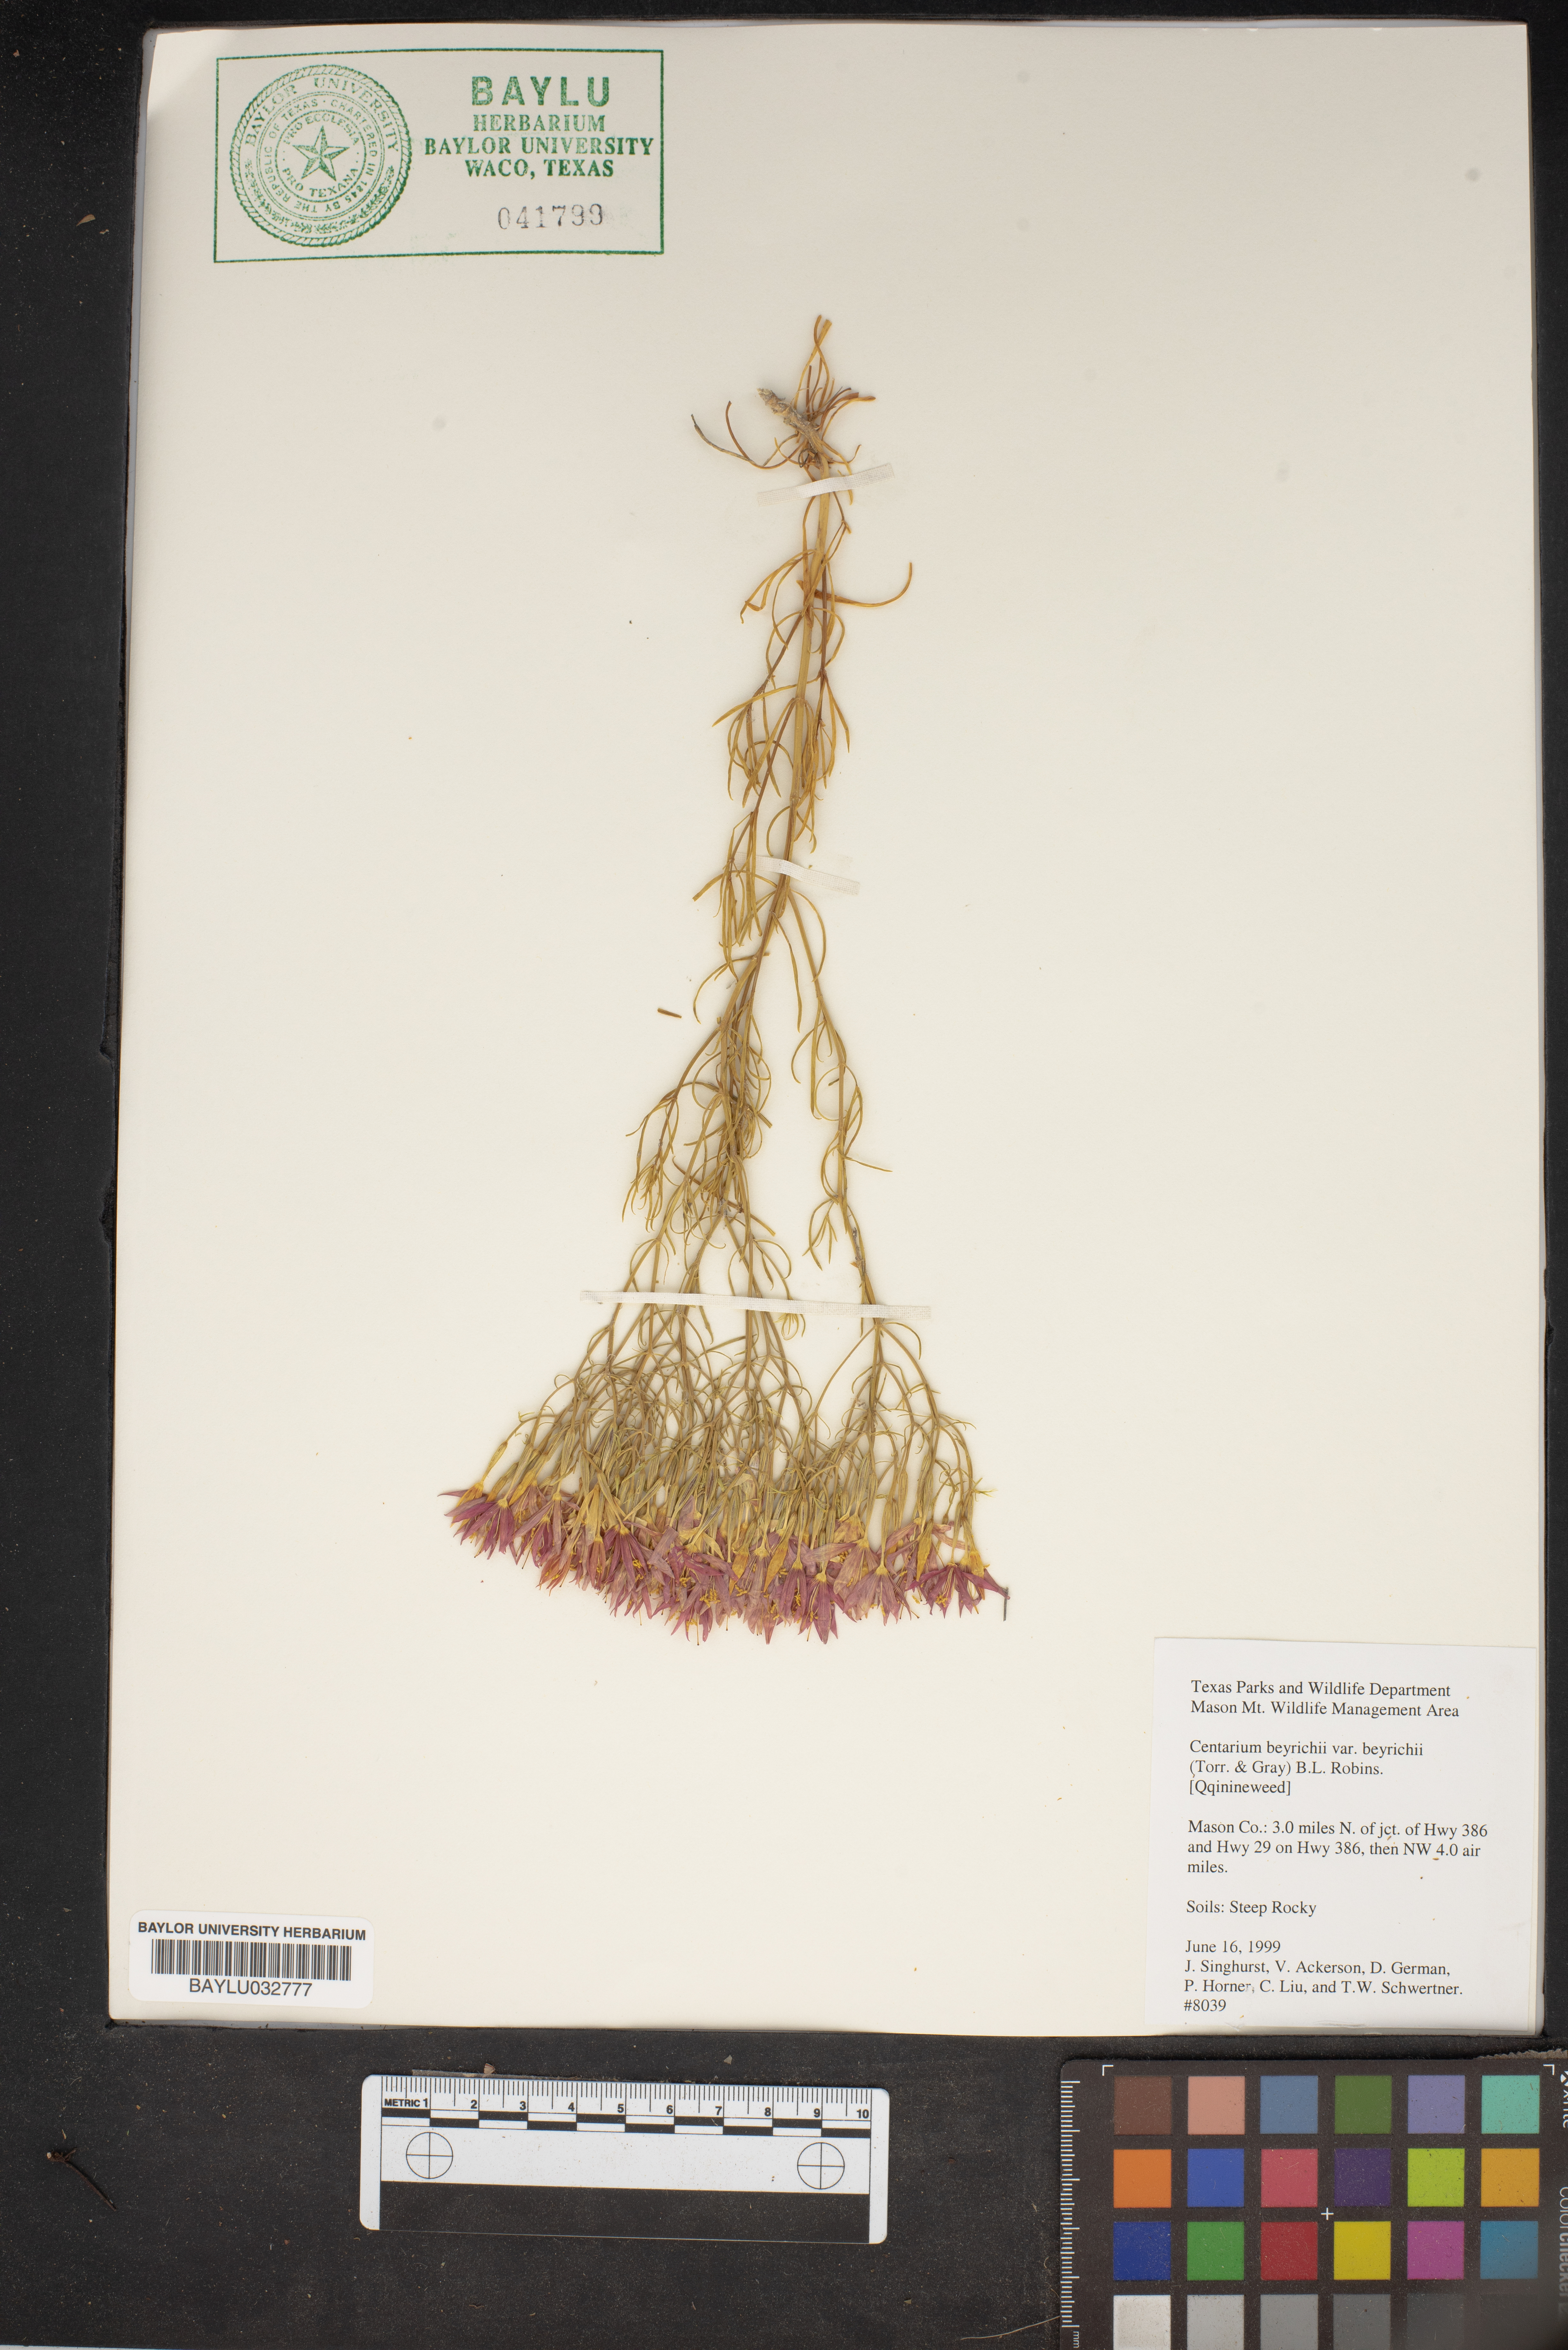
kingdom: Plantae
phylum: Tracheophyta
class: Magnoliopsida
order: Gentianales
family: Gentianaceae
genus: Zeltnera
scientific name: Zeltnera beyrichii
